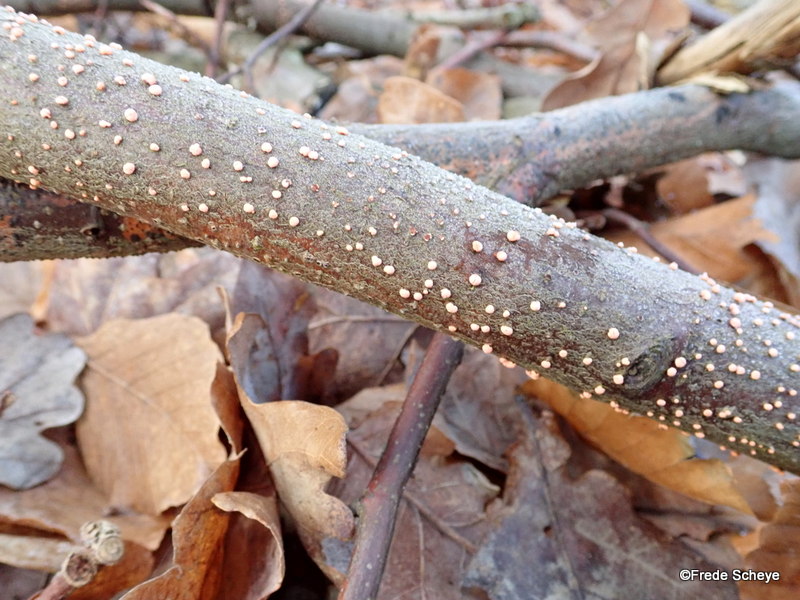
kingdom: Fungi
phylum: Ascomycota
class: Sordariomycetes
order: Hypocreales
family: Nectriaceae
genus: Nectria
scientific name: Nectria cinnabarina
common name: almindelig cinnobersvamp
